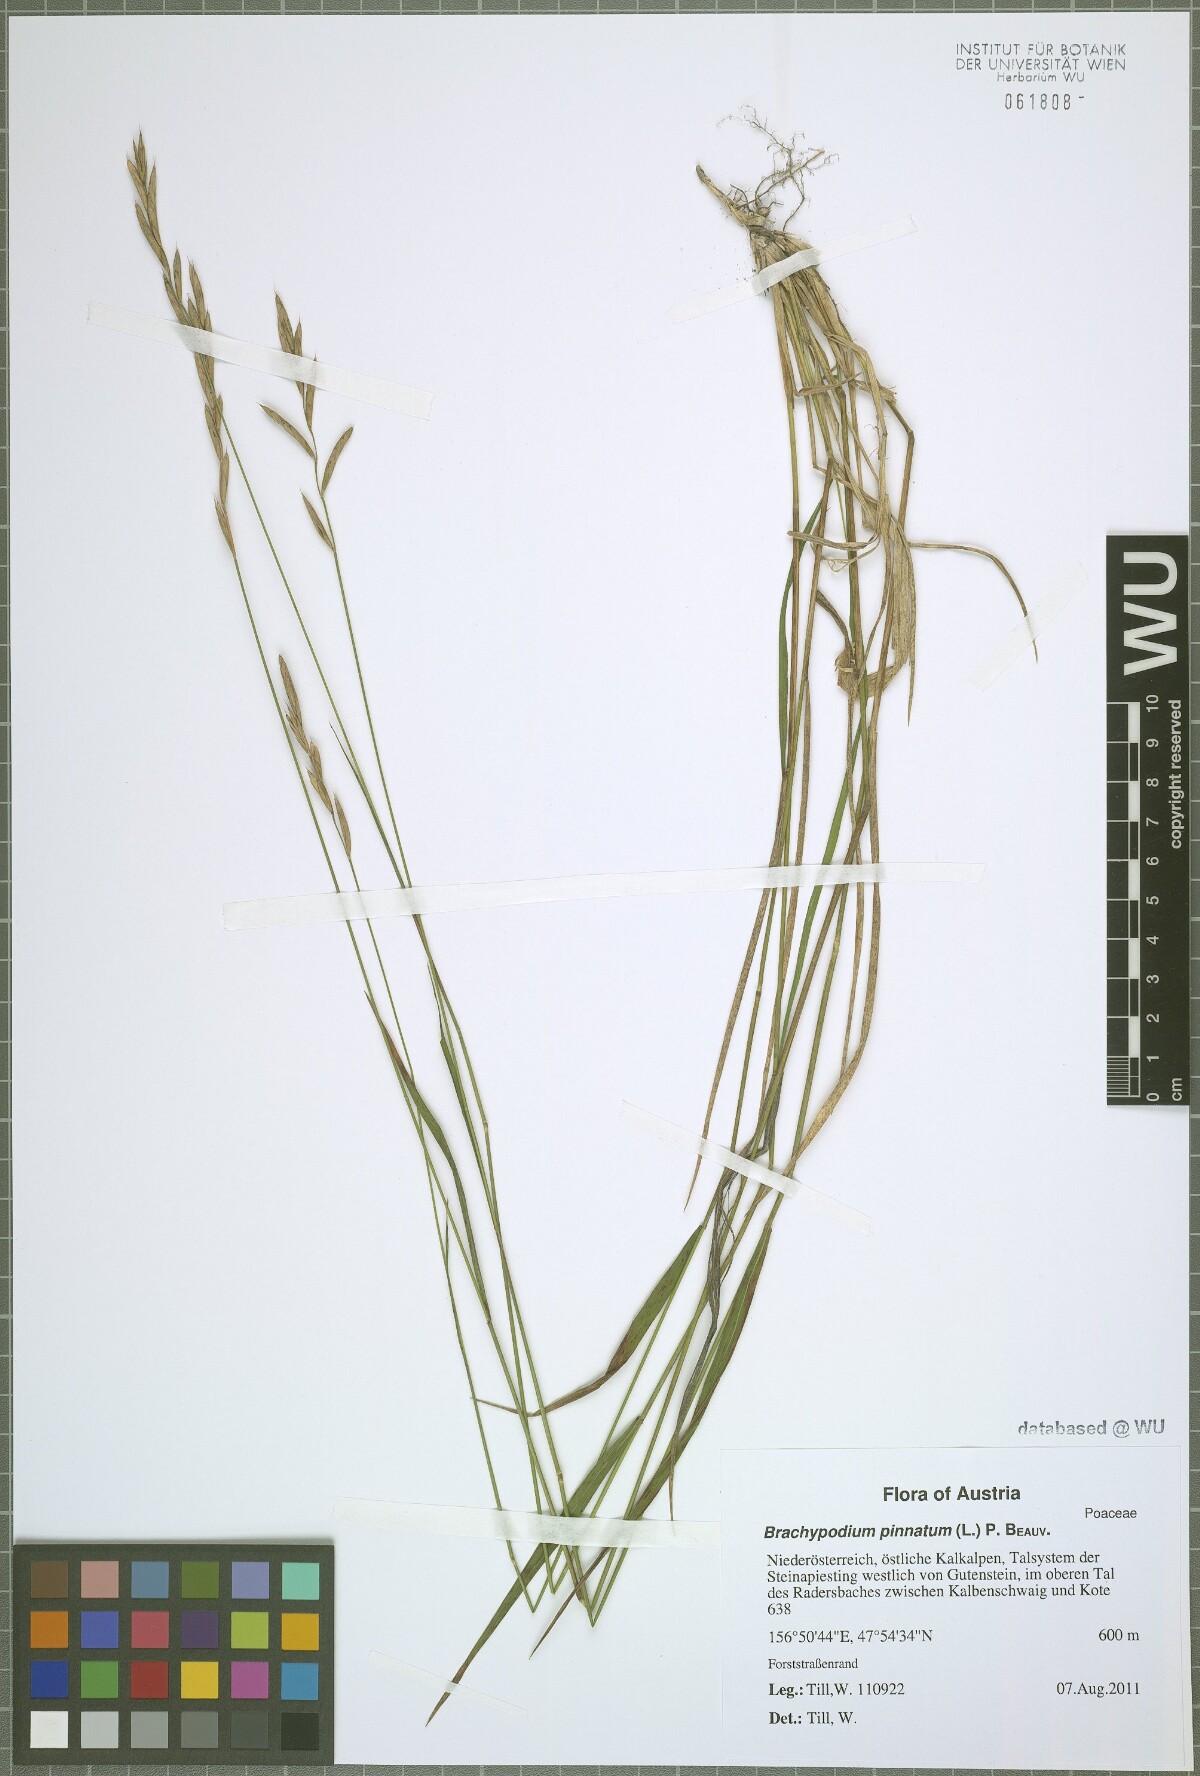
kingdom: Plantae
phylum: Tracheophyta
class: Liliopsida
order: Poales
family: Poaceae
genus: Brachypodium
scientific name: Brachypodium pinnatum
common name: Tor grass
